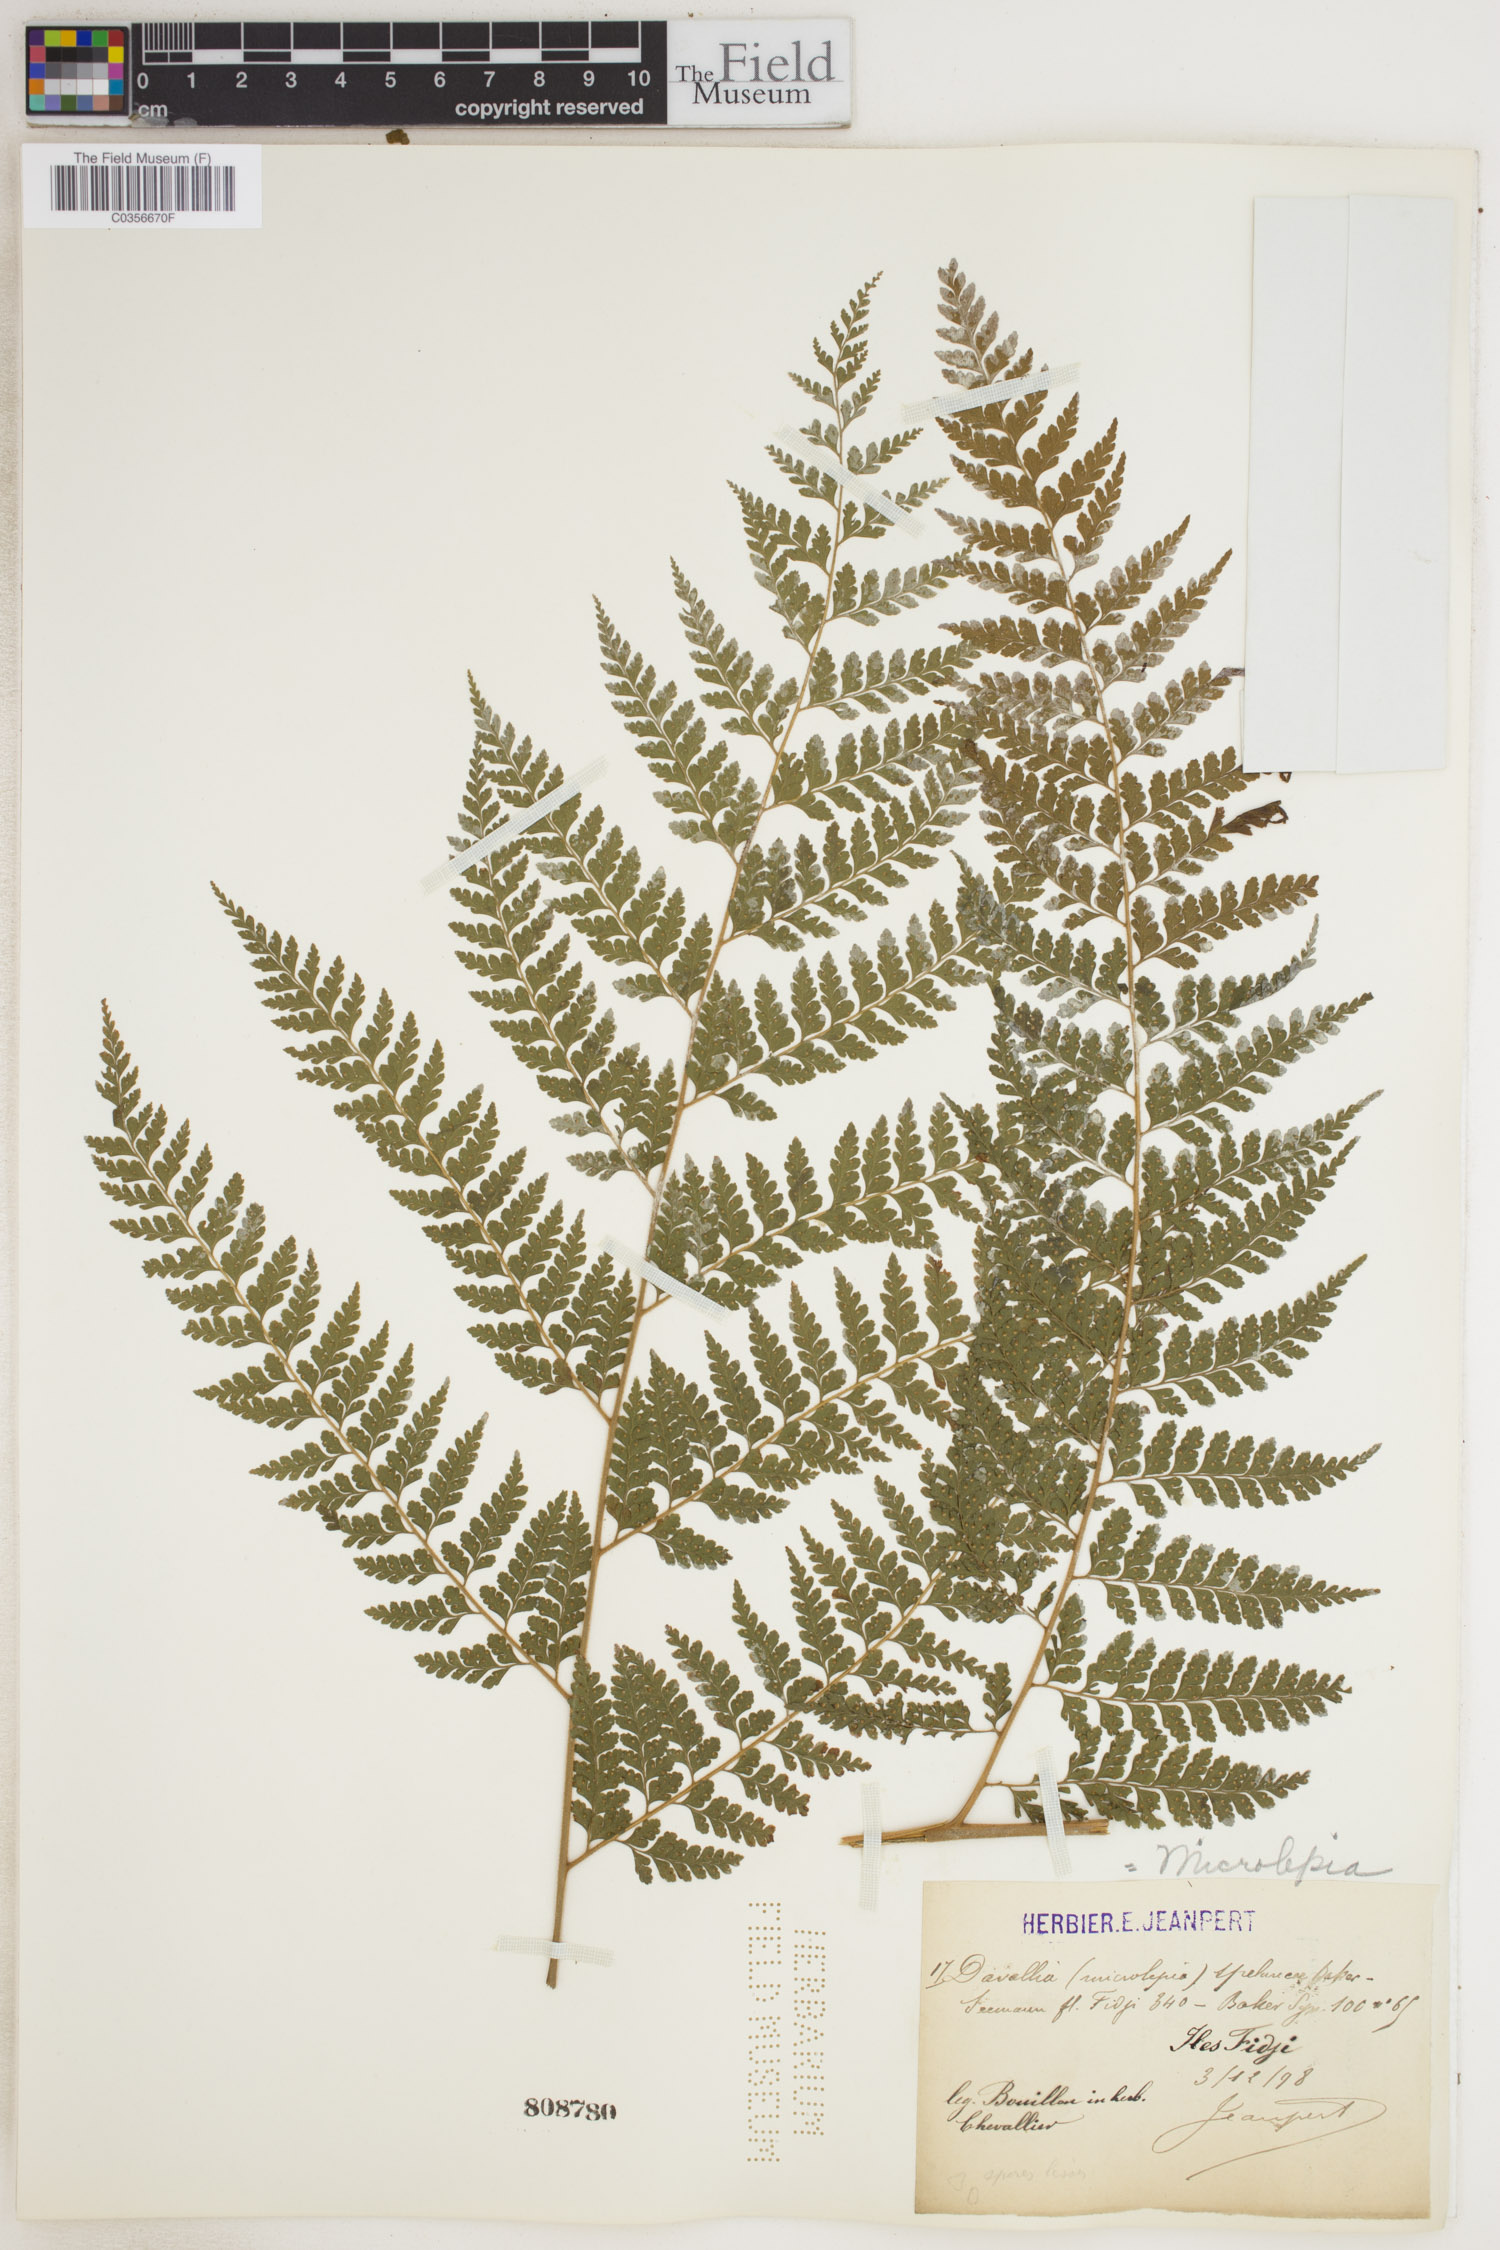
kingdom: Plantae
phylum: Tracheophyta
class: Polypodiopsida
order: Polypodiales
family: Dennstaedtiaceae
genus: Microlepia
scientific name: Microlepia speluncae
